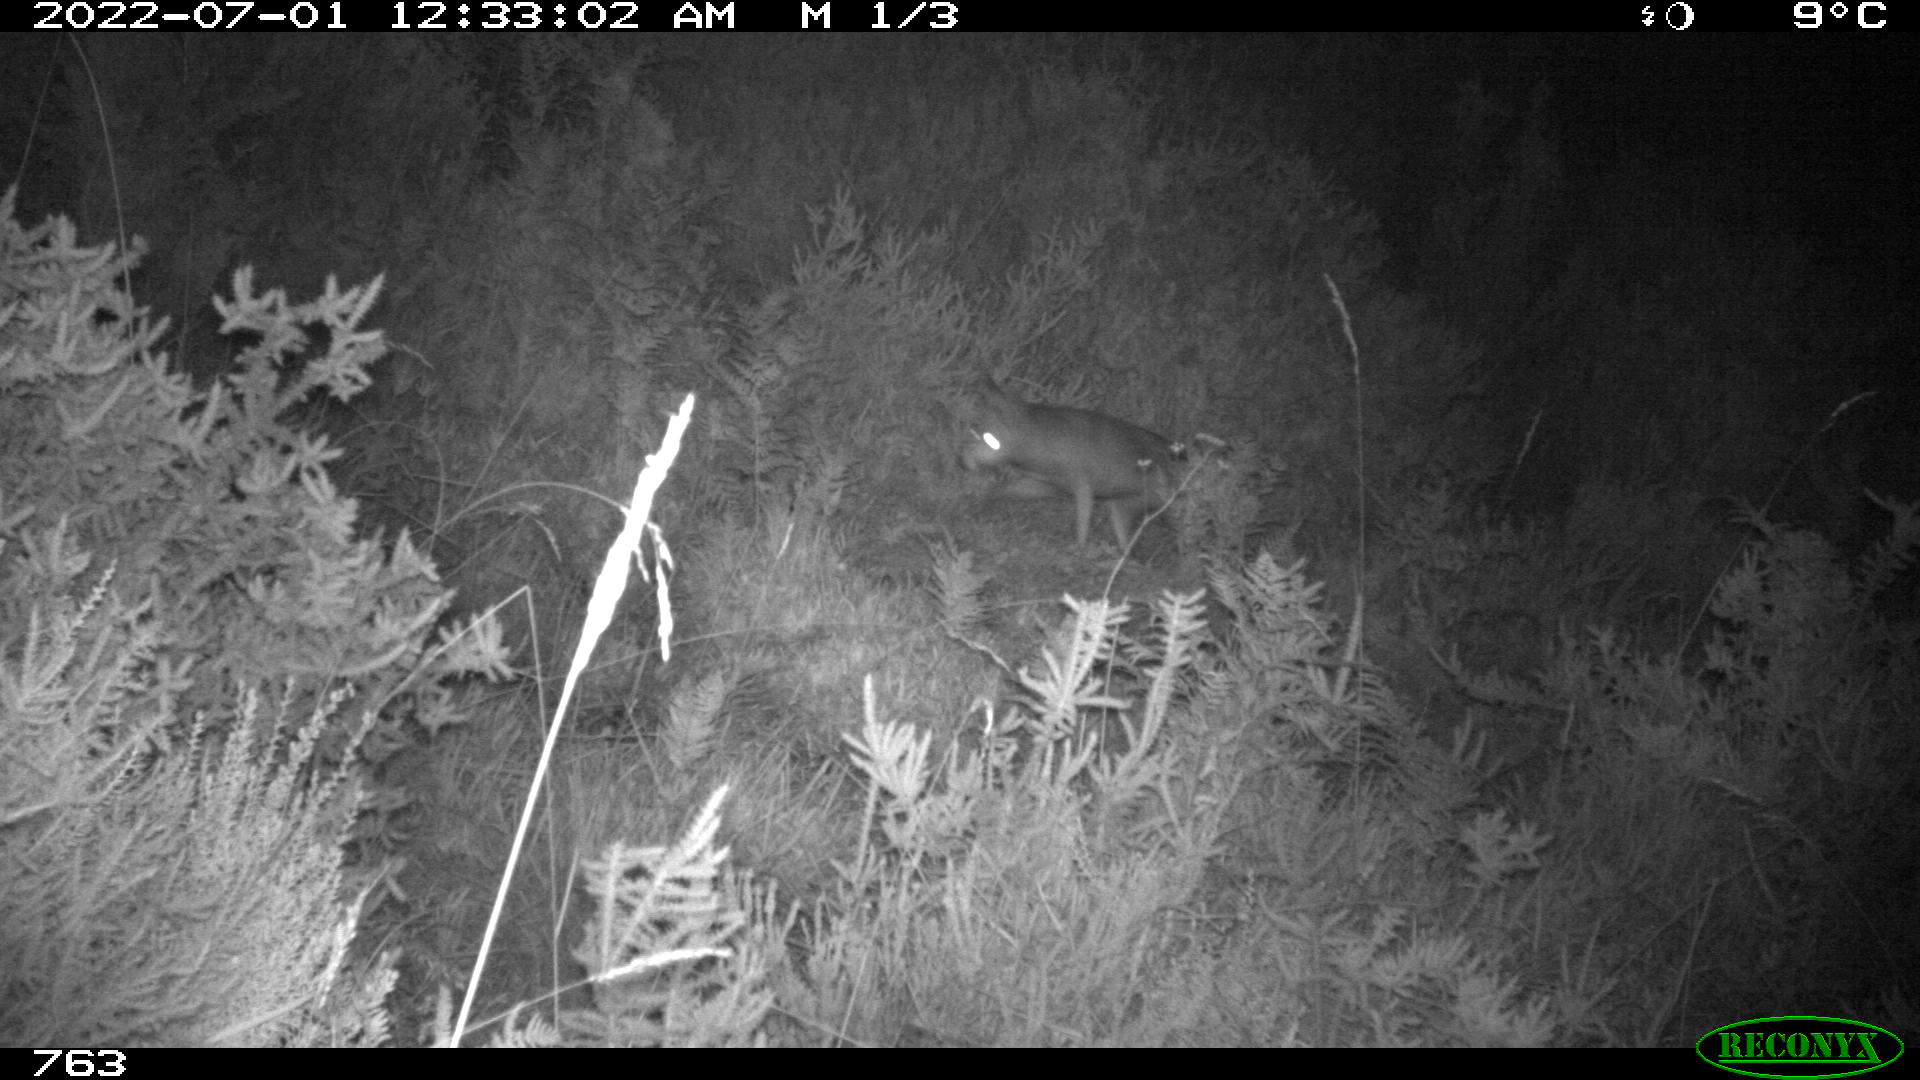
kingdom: Animalia
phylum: Chordata
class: Mammalia
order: Carnivora
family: Canidae
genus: Vulpes
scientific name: Vulpes vulpes
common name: Red fox
